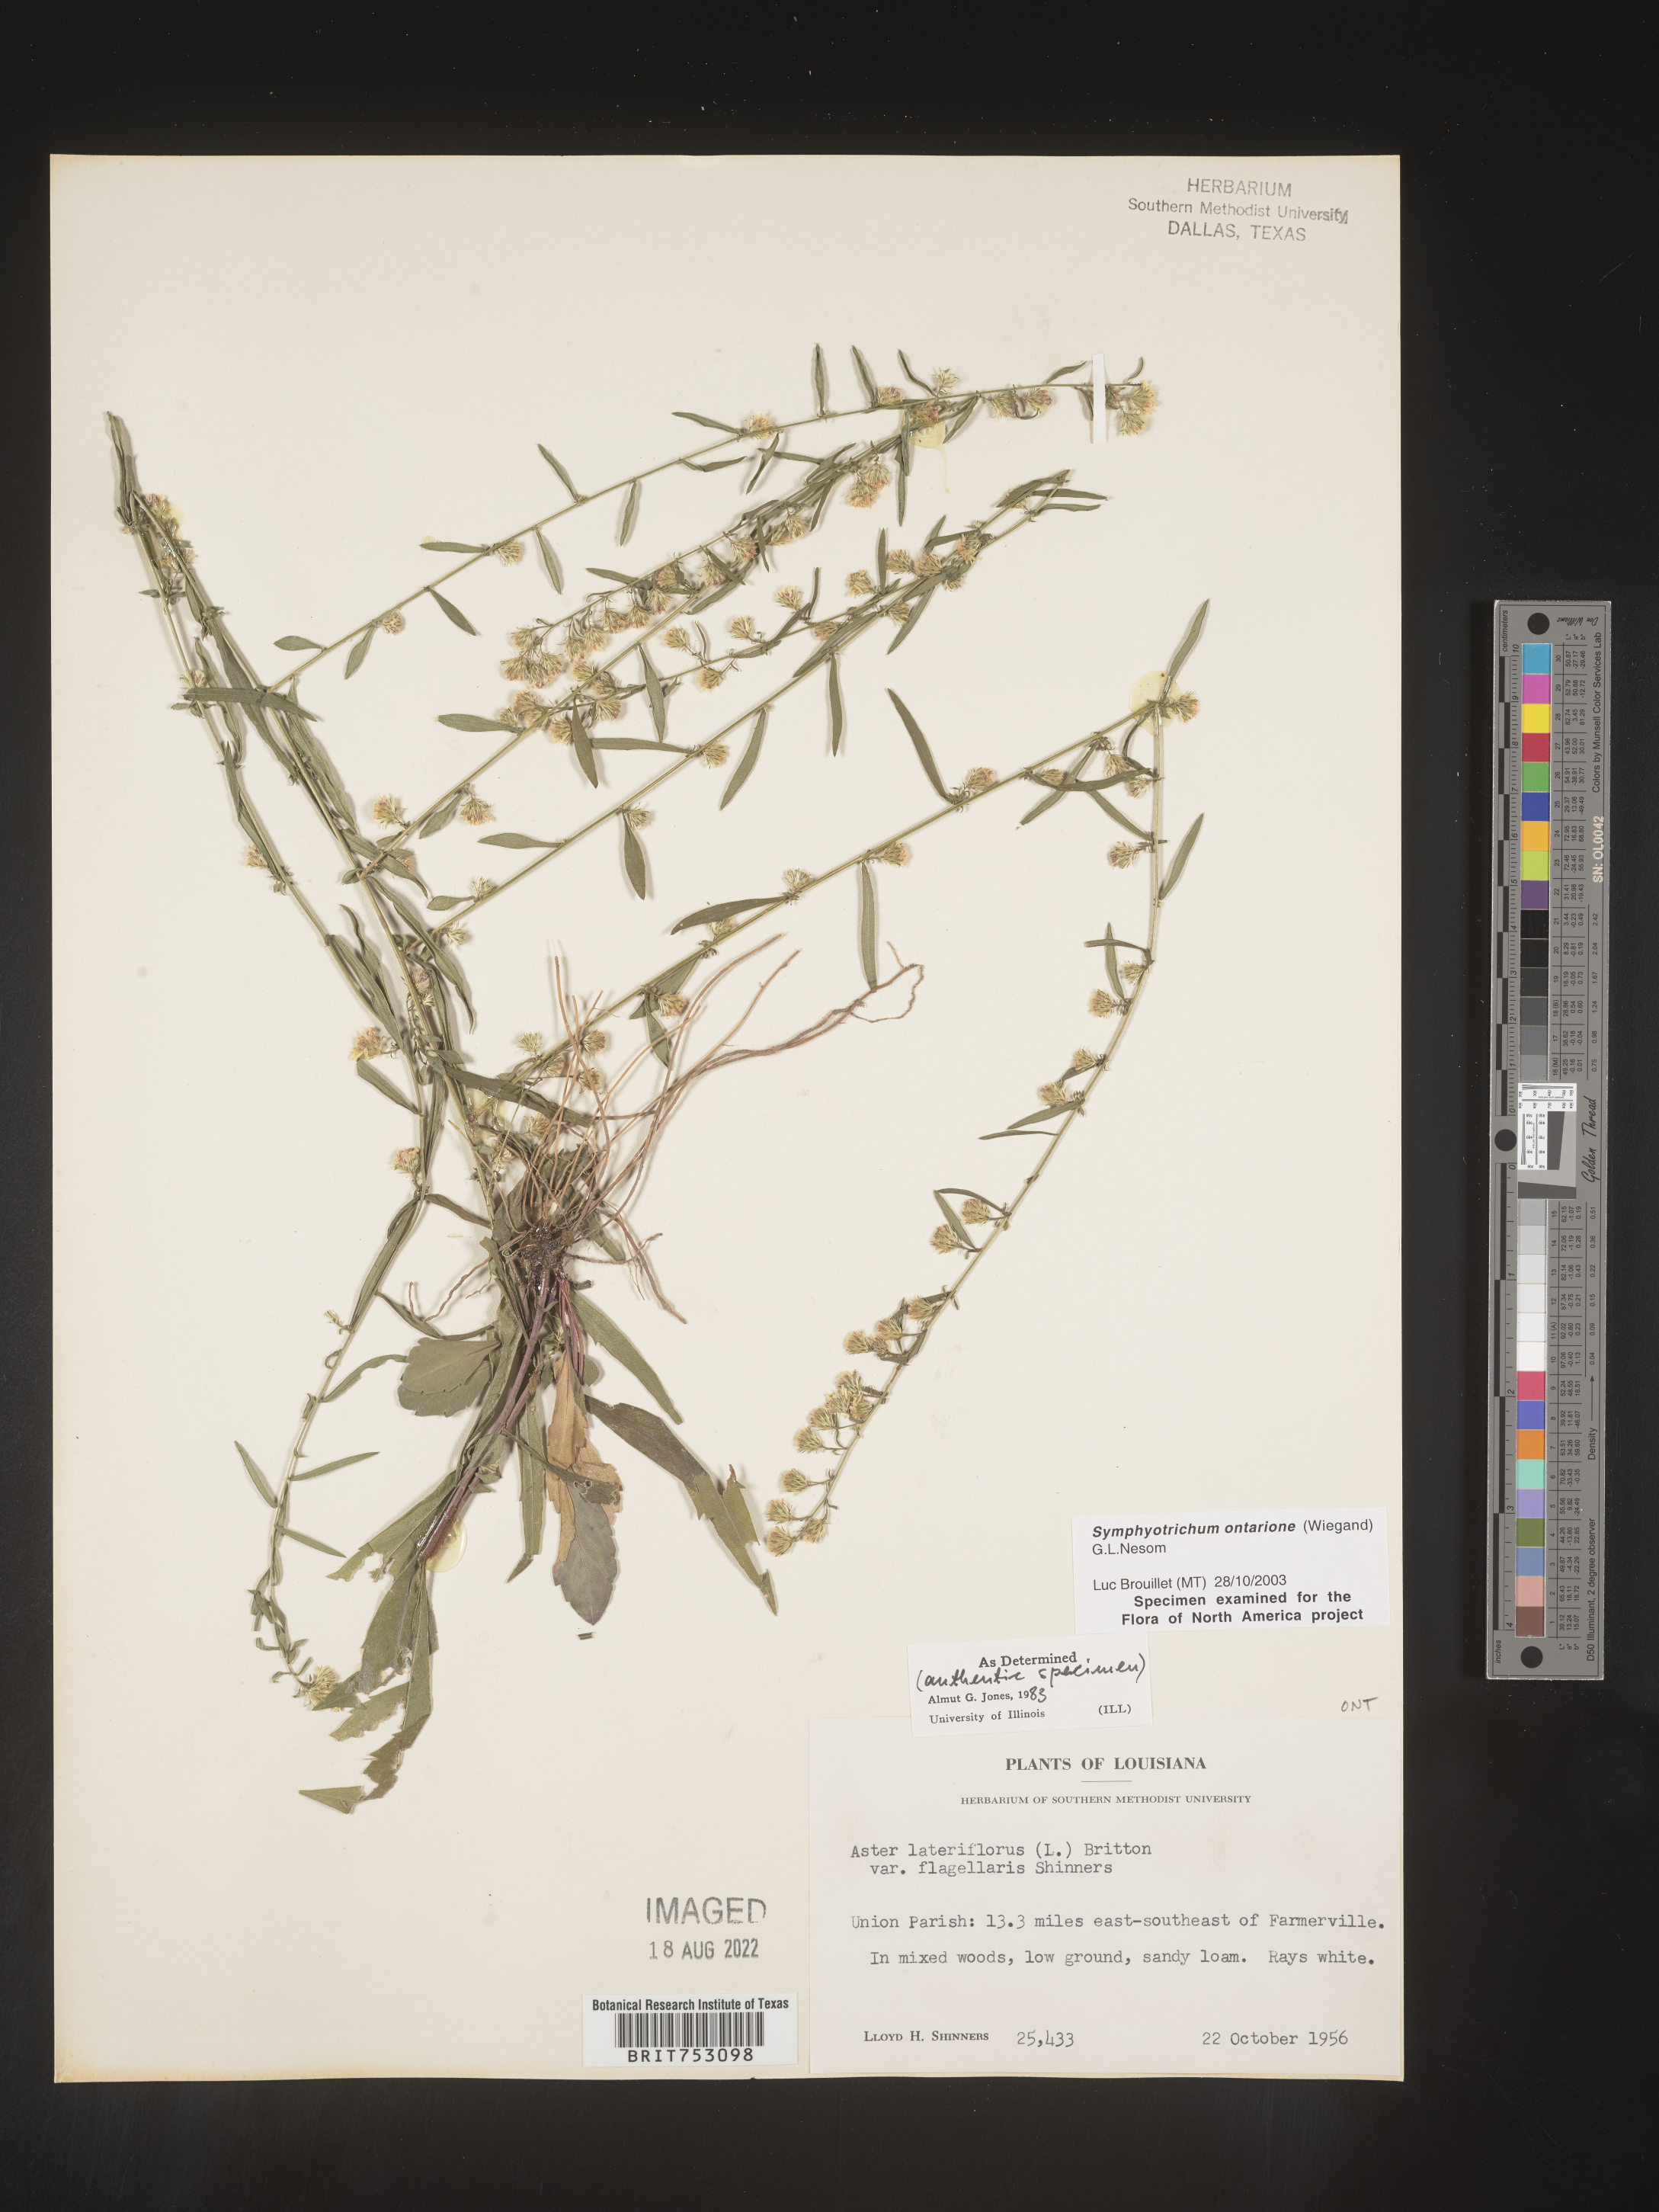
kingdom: Plantae
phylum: Tracheophyta
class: Magnoliopsida
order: Asterales
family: Asteraceae
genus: Symphyotrichum
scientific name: Symphyotrichum ontarionis
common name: Bottomland aster
